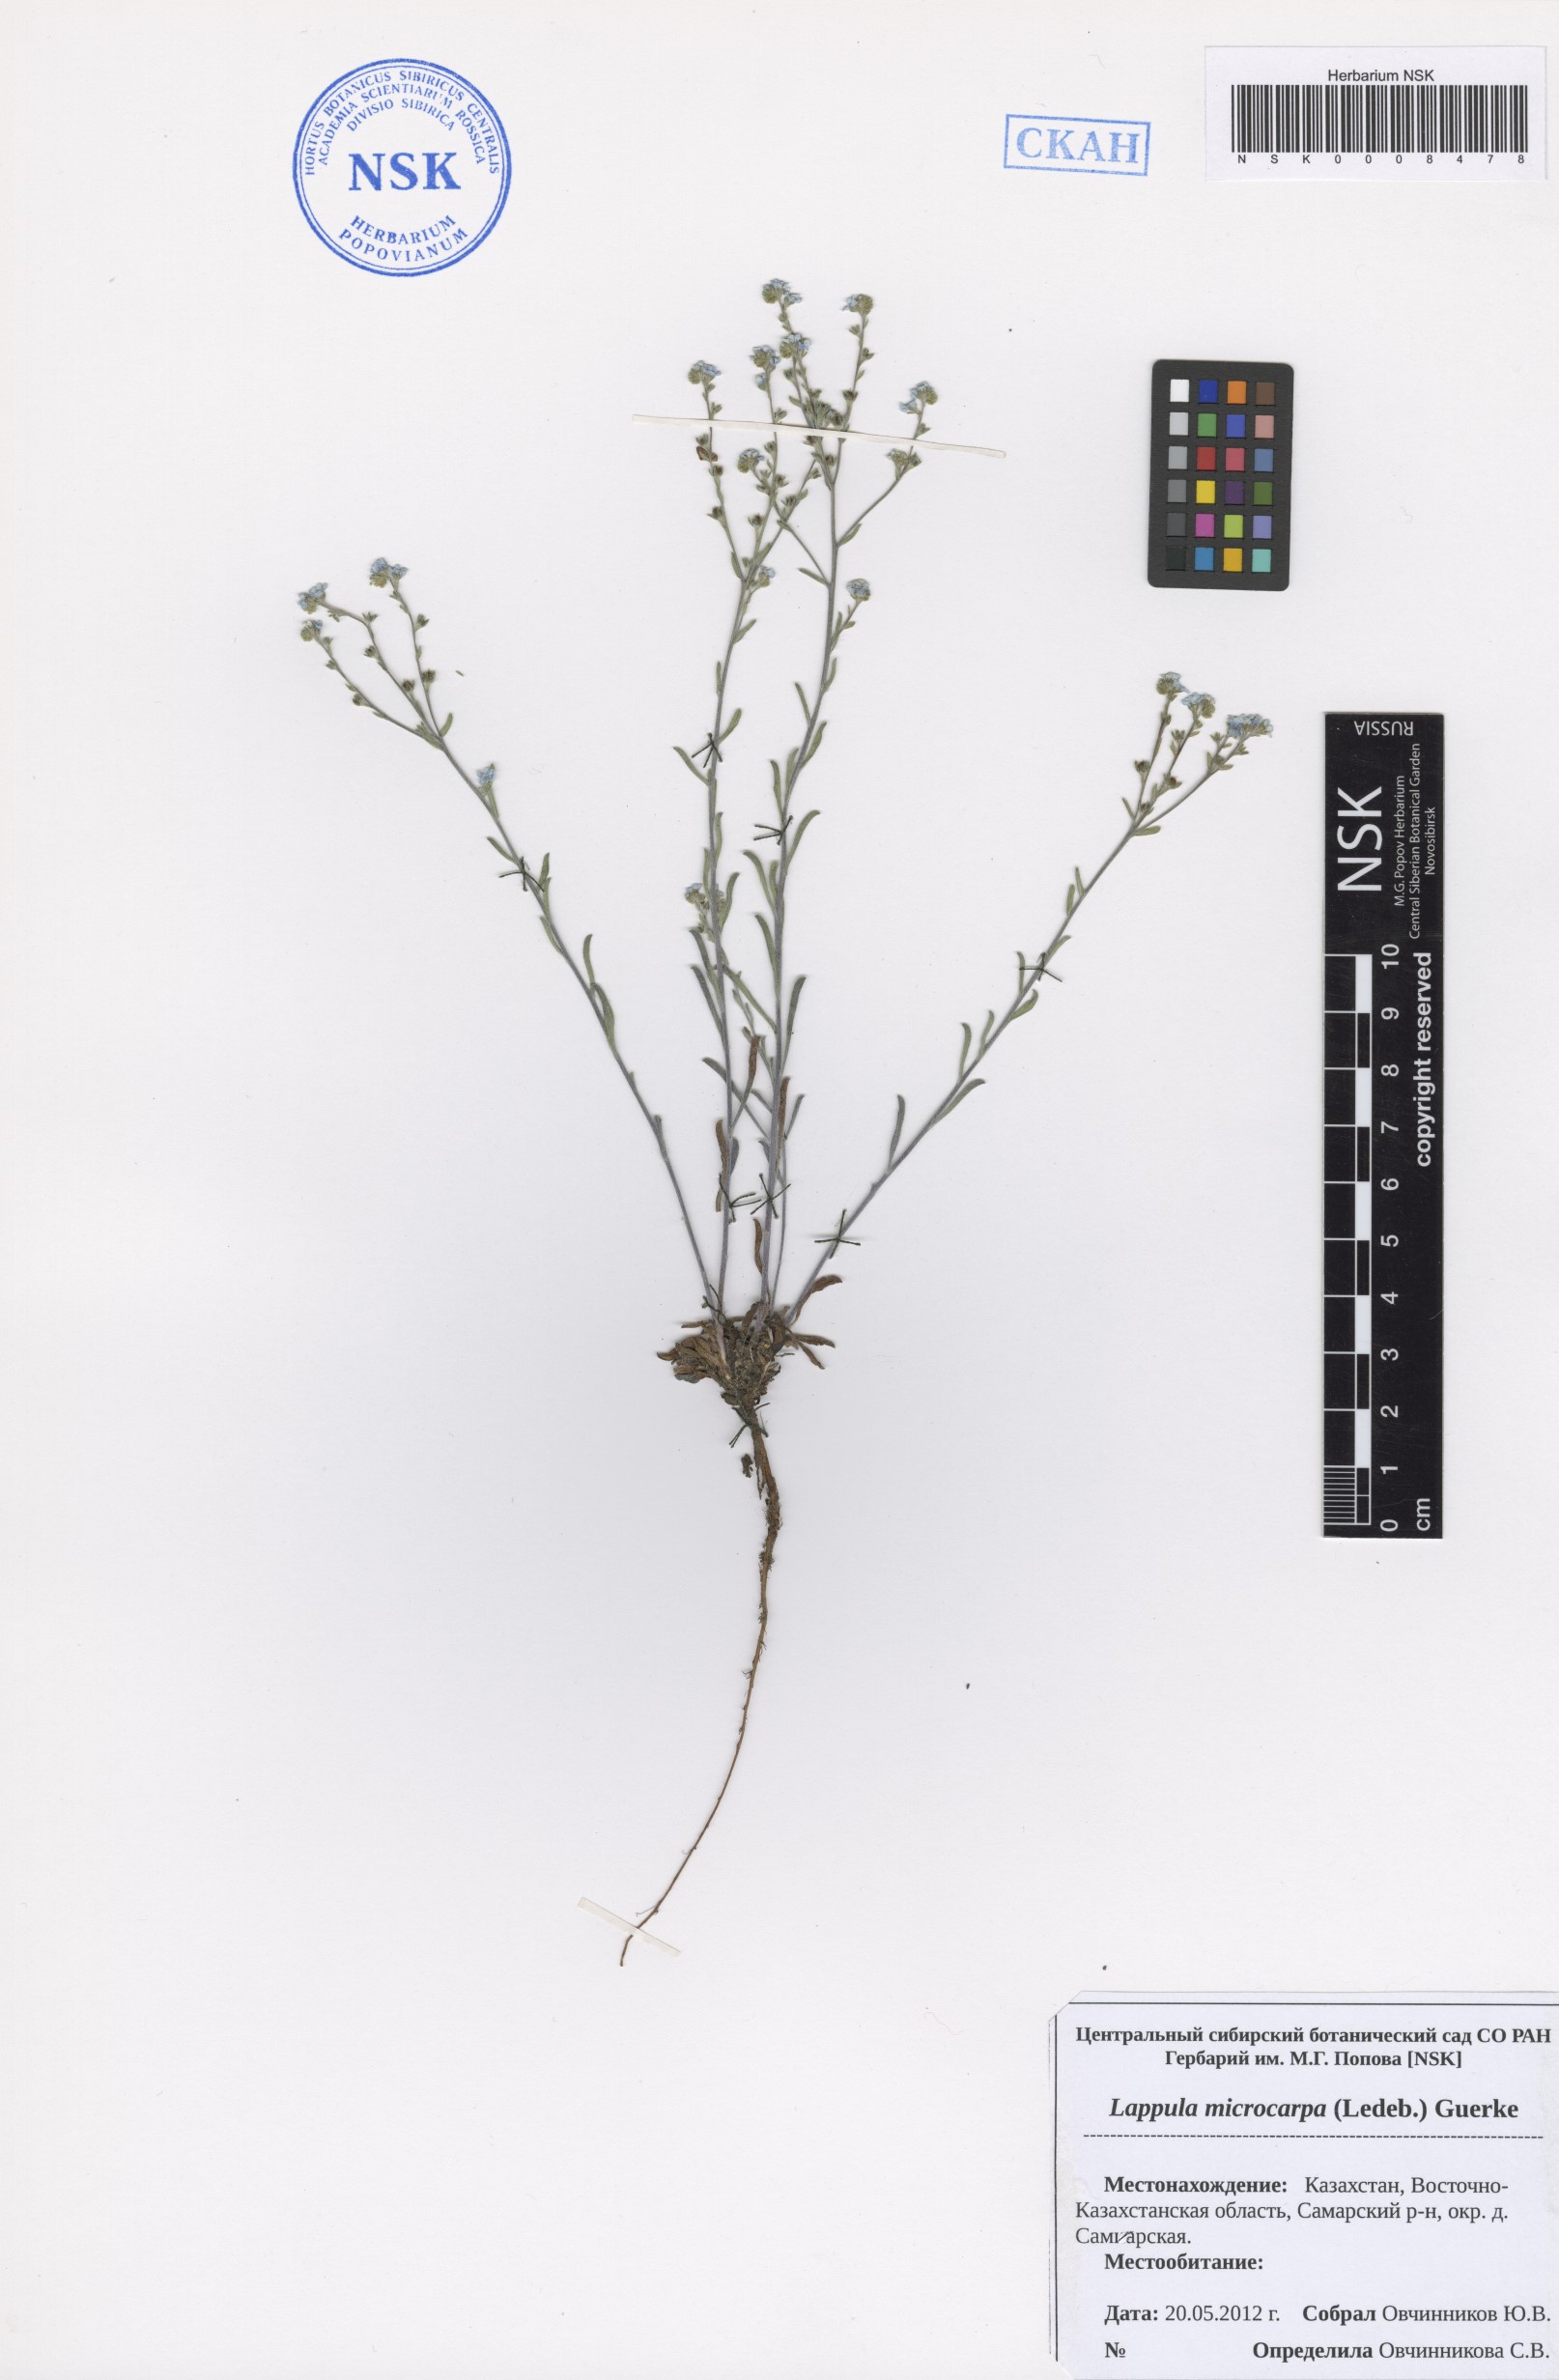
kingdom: Plantae
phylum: Tracheophyta
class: Magnoliopsida
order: Boraginales
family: Boraginaceae
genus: Lappula
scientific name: Lappula microcarpa
